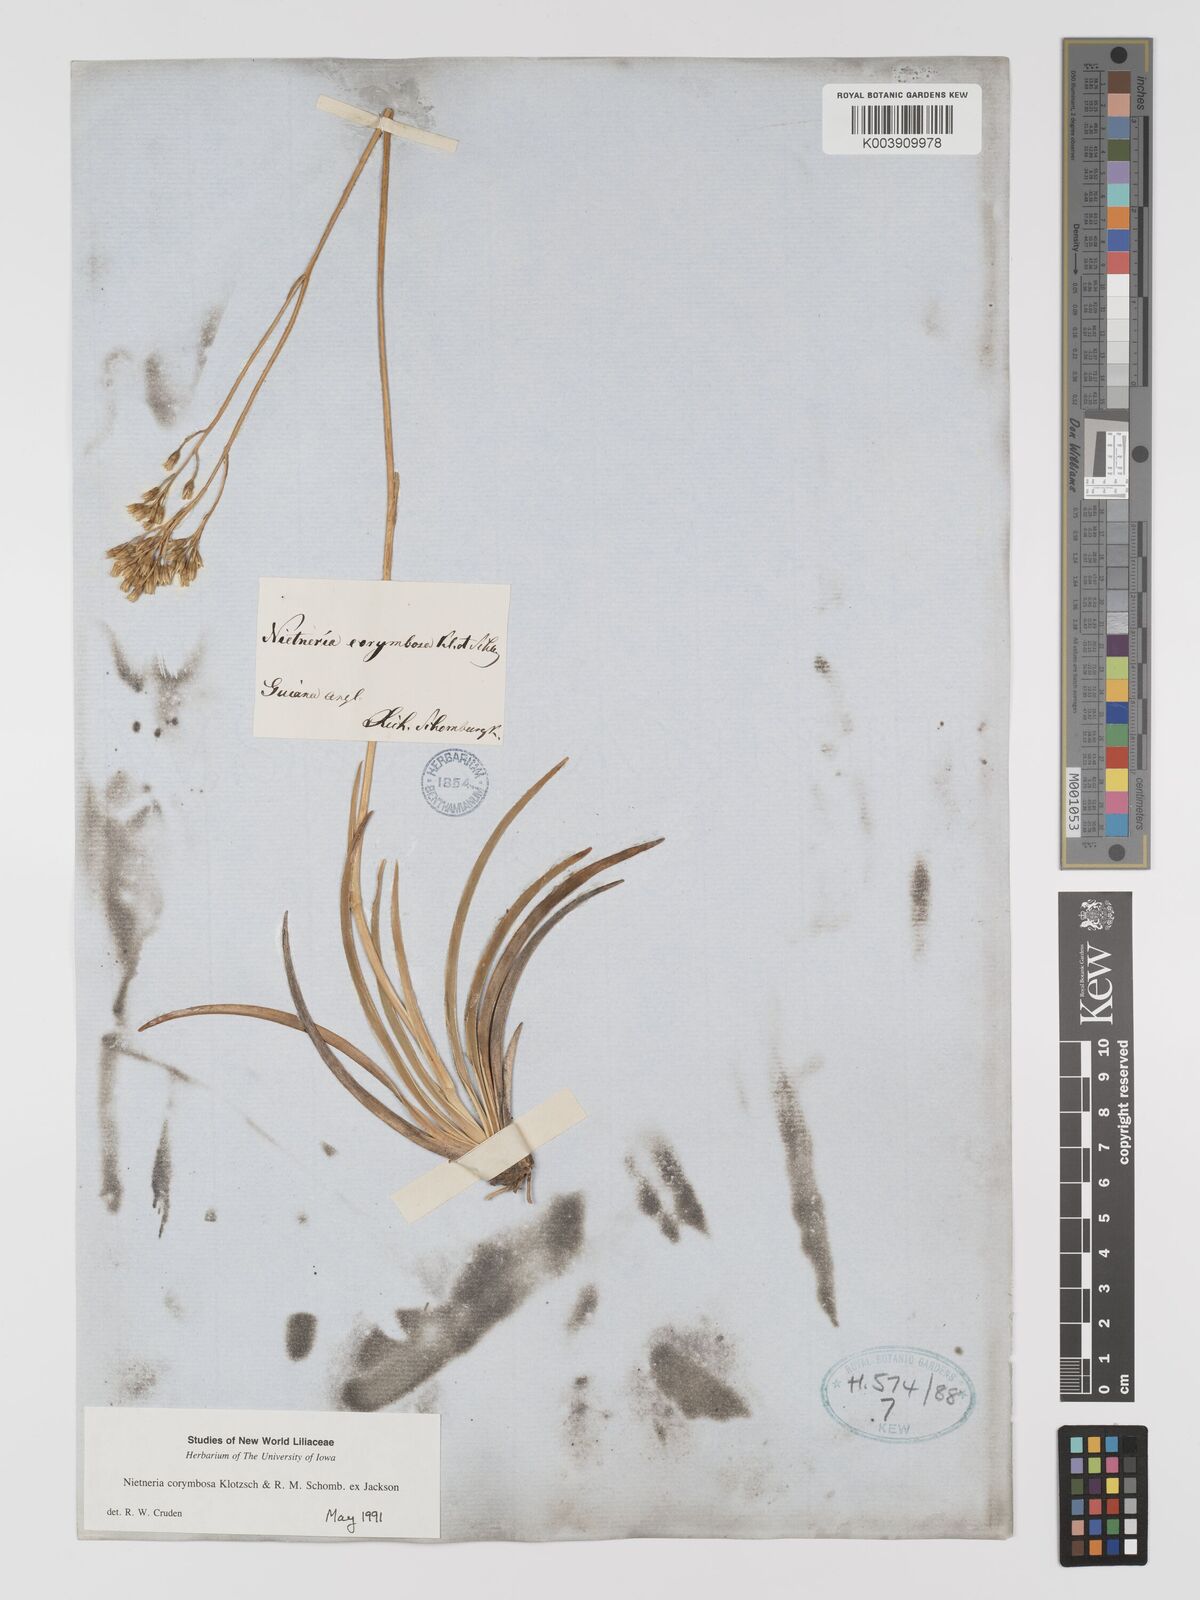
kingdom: Plantae
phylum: Tracheophyta
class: Liliopsida
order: Dioscoreales
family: Nartheciaceae
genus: Nietneria
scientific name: Nietneria corymbosa
